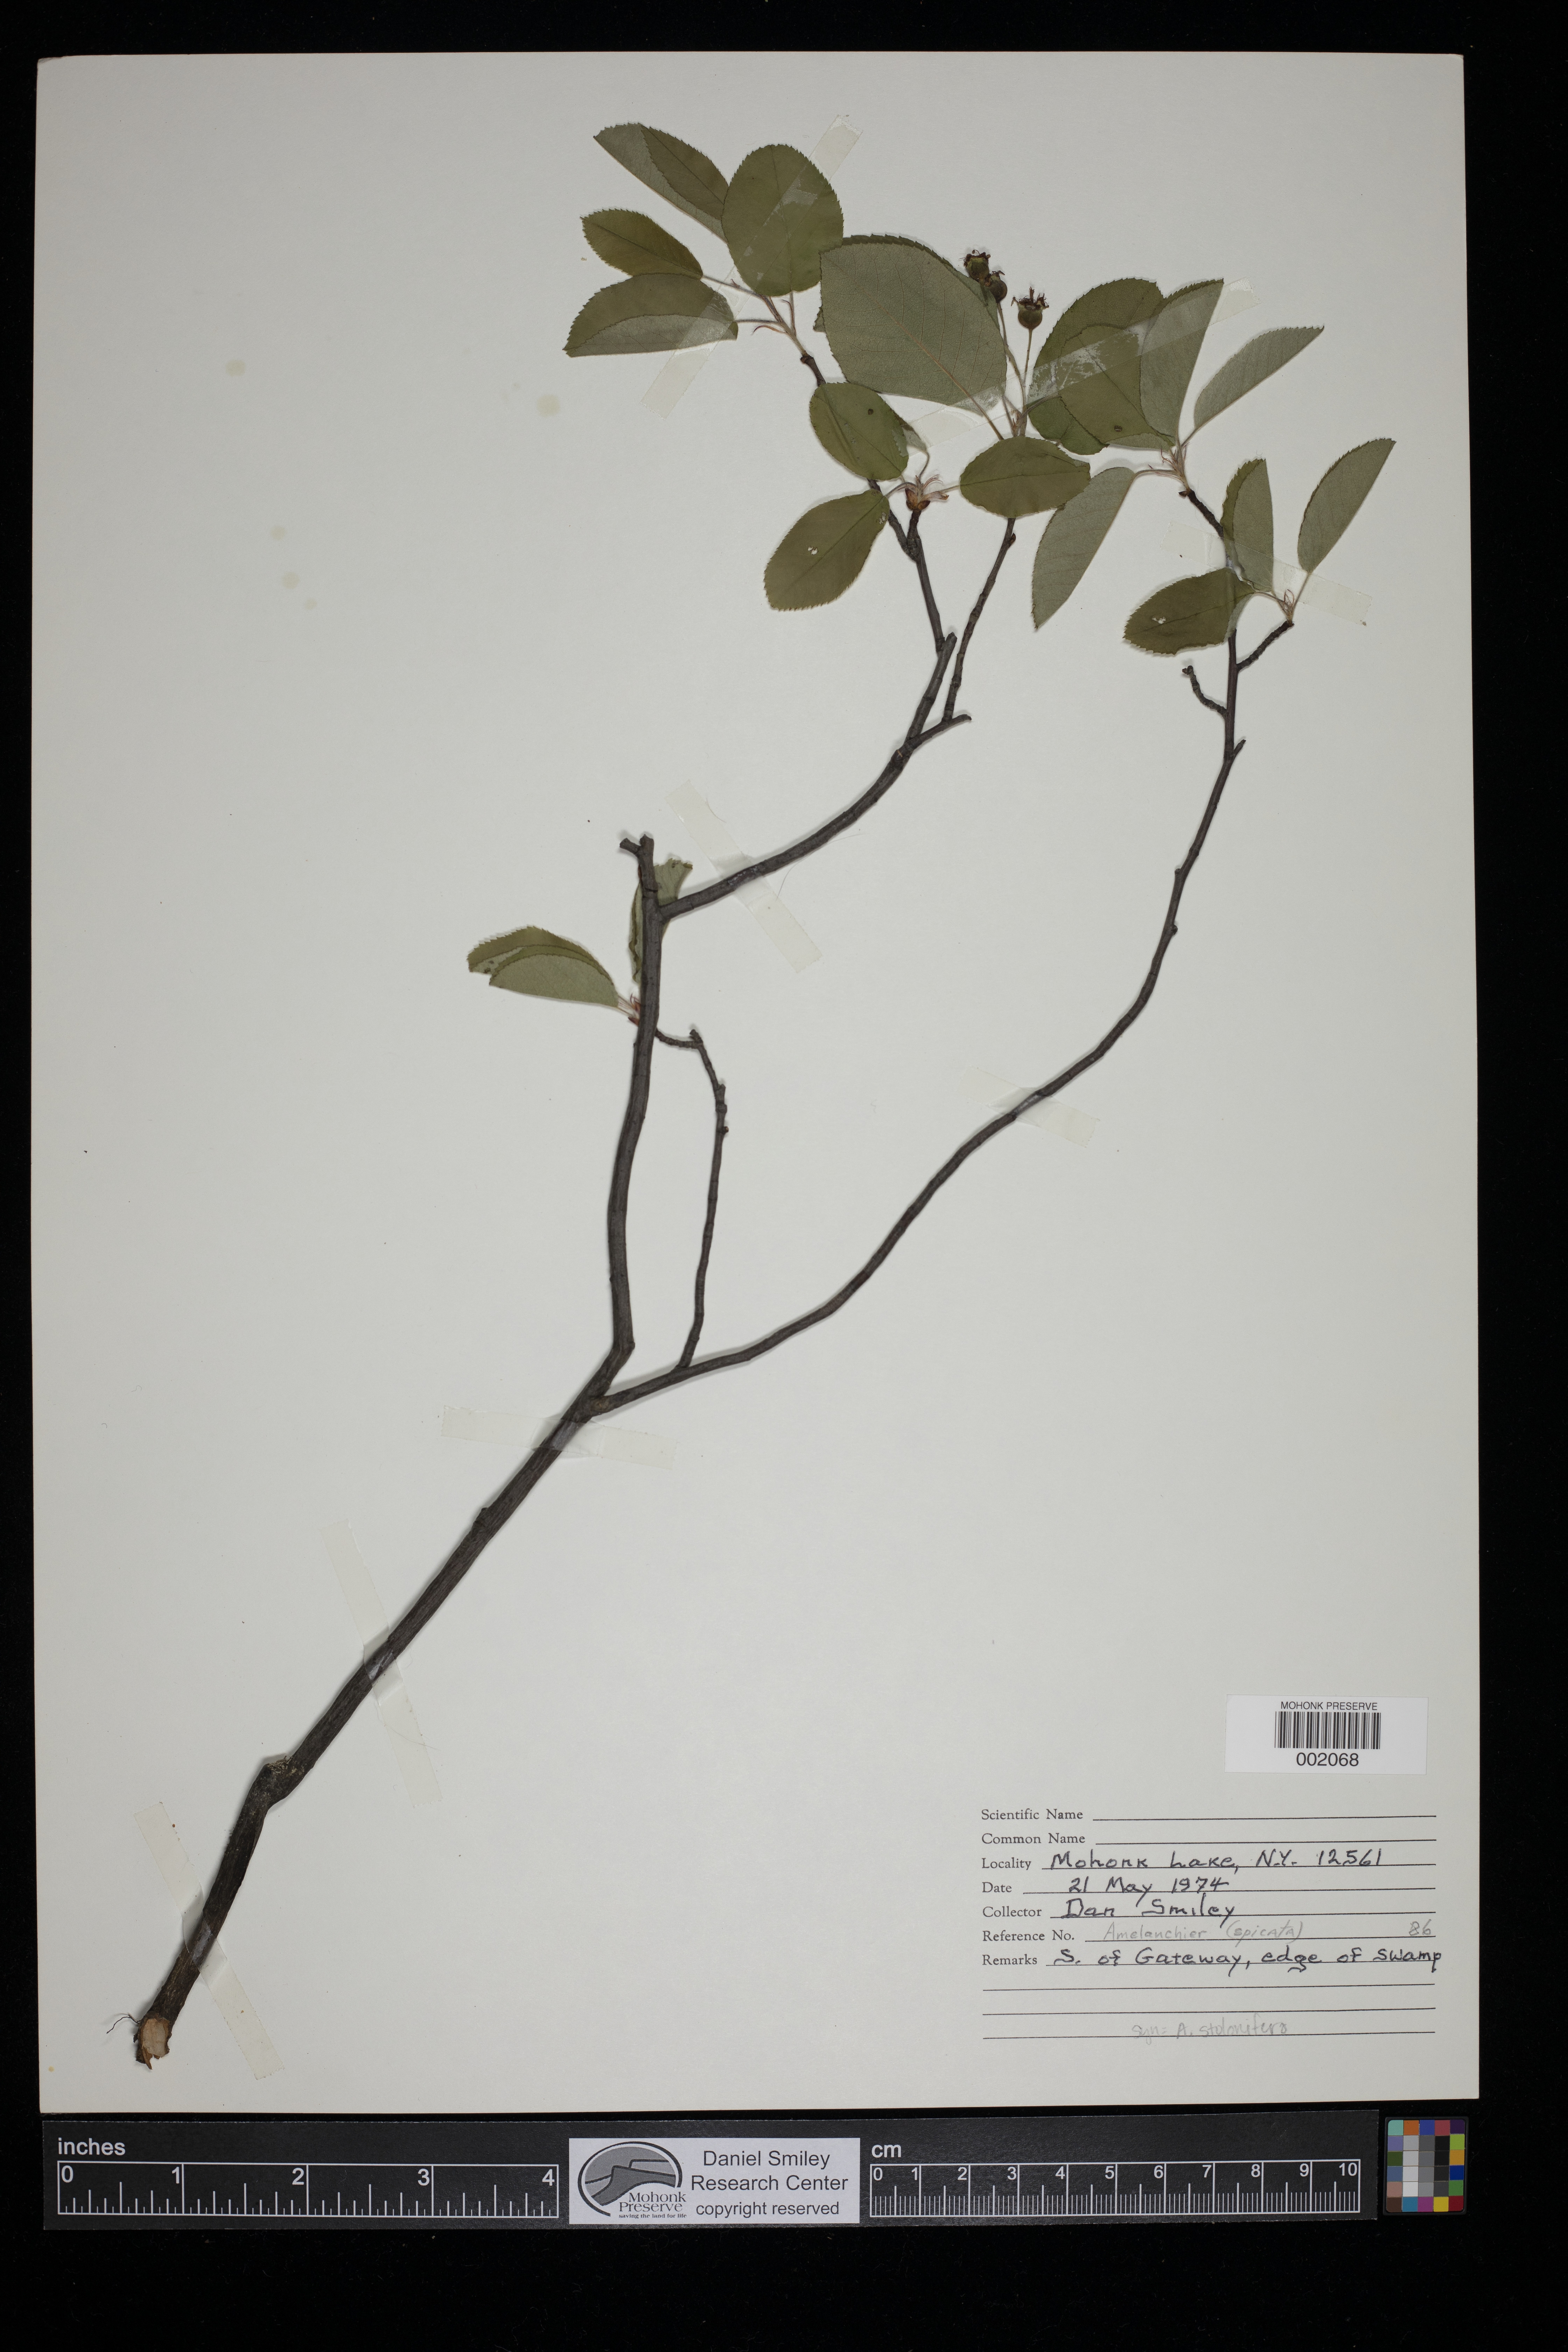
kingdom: Plantae
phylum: Tracheophyta
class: Magnoliopsida
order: Rosales
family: Rosaceae
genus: Amelanchier
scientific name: Amelanchier stolonifera
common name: Running serviceberry
